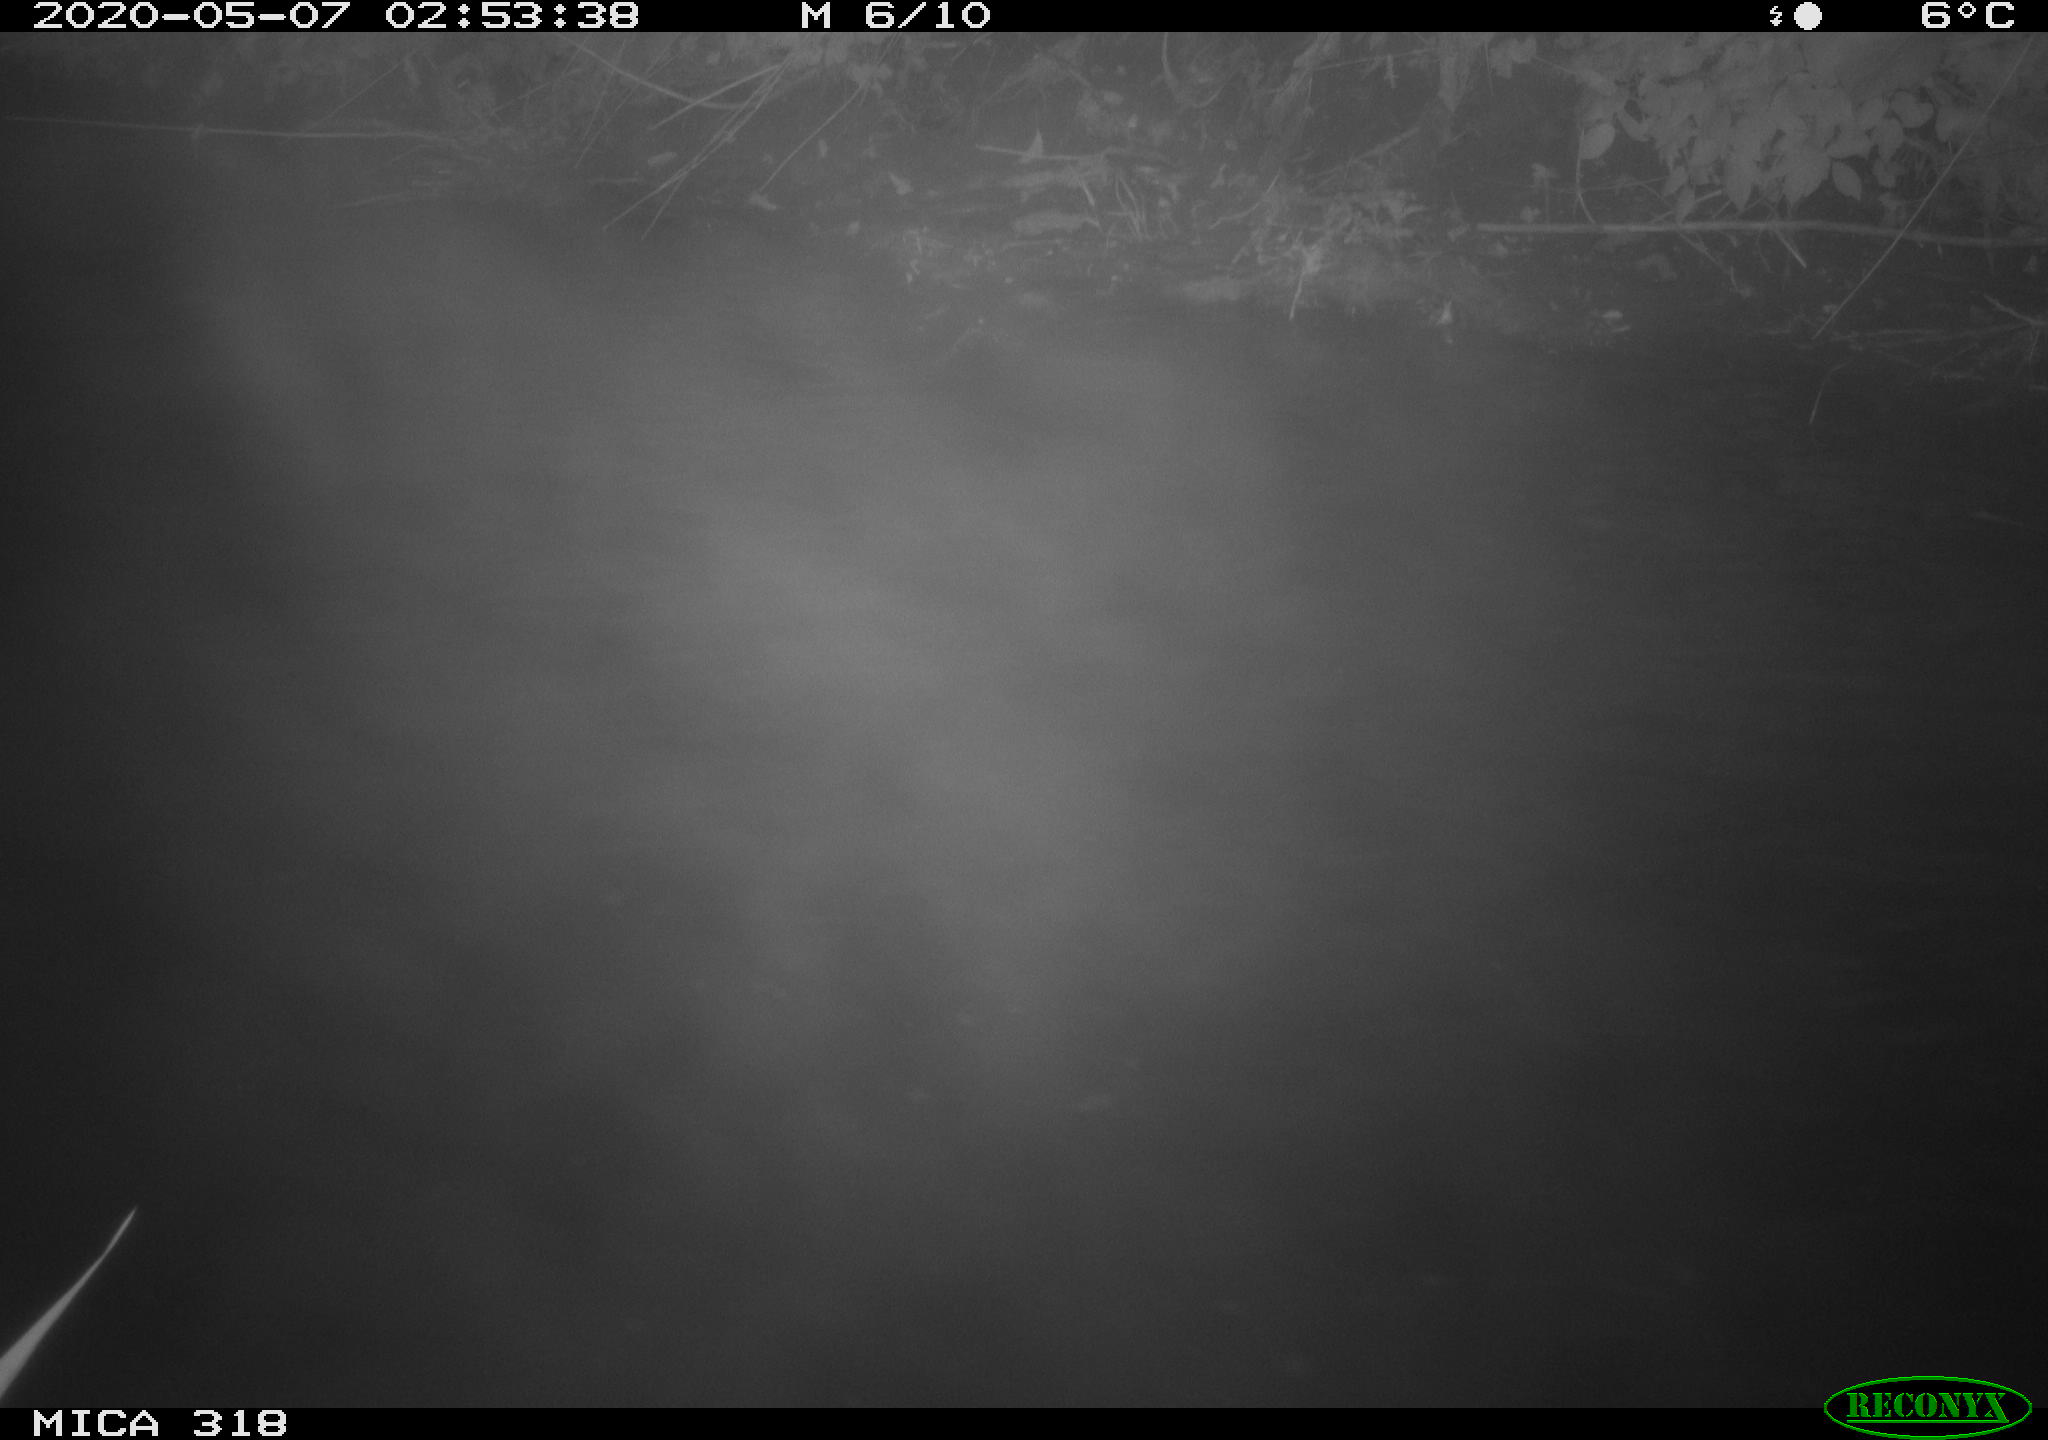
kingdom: Animalia
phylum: Chordata
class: Aves
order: Anseriformes
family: Anatidae
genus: Anas
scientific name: Anas platyrhynchos
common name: Mallard
